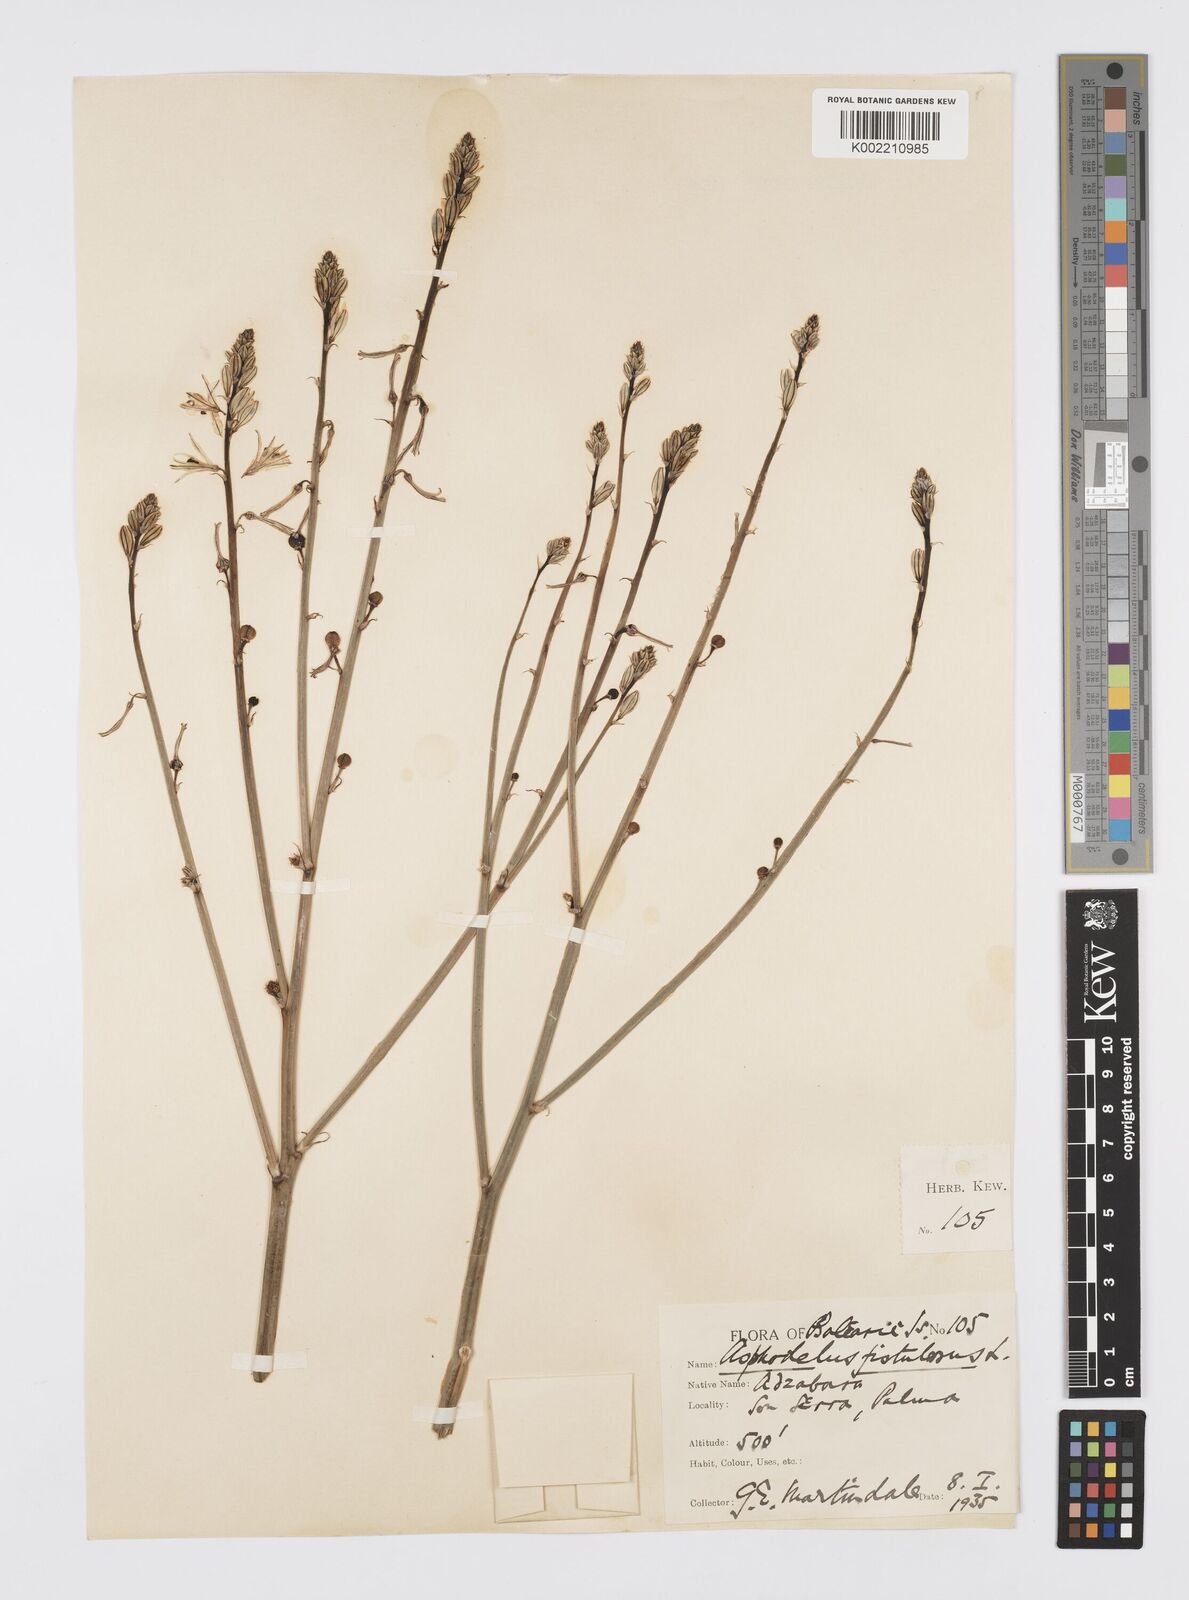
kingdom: Plantae
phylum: Tracheophyta
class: Liliopsida
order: Asparagales
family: Asphodelaceae
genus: Asphodelus
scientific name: Asphodelus fistulosus
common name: Onionweed
